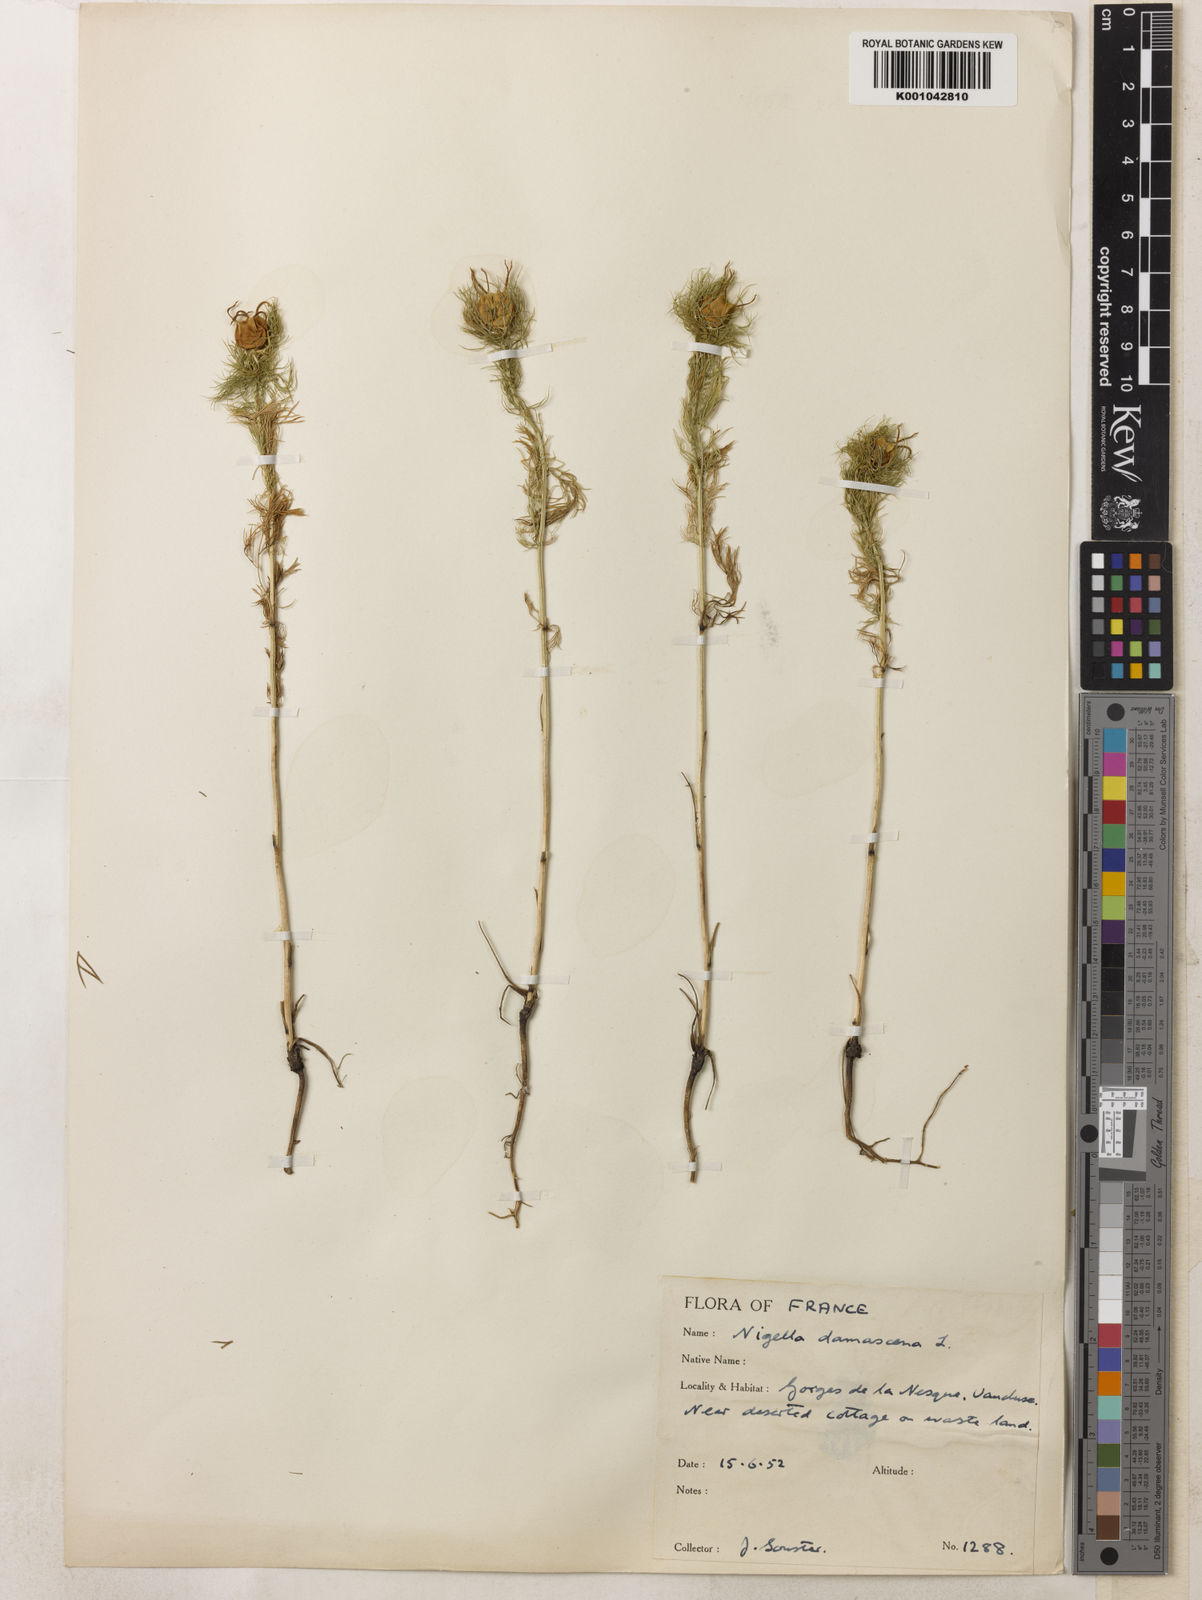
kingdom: Plantae
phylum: Tracheophyta
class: Magnoliopsida
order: Ranunculales
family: Ranunculaceae
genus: Nigella
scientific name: Nigella damascena
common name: Love-in-a-mist
